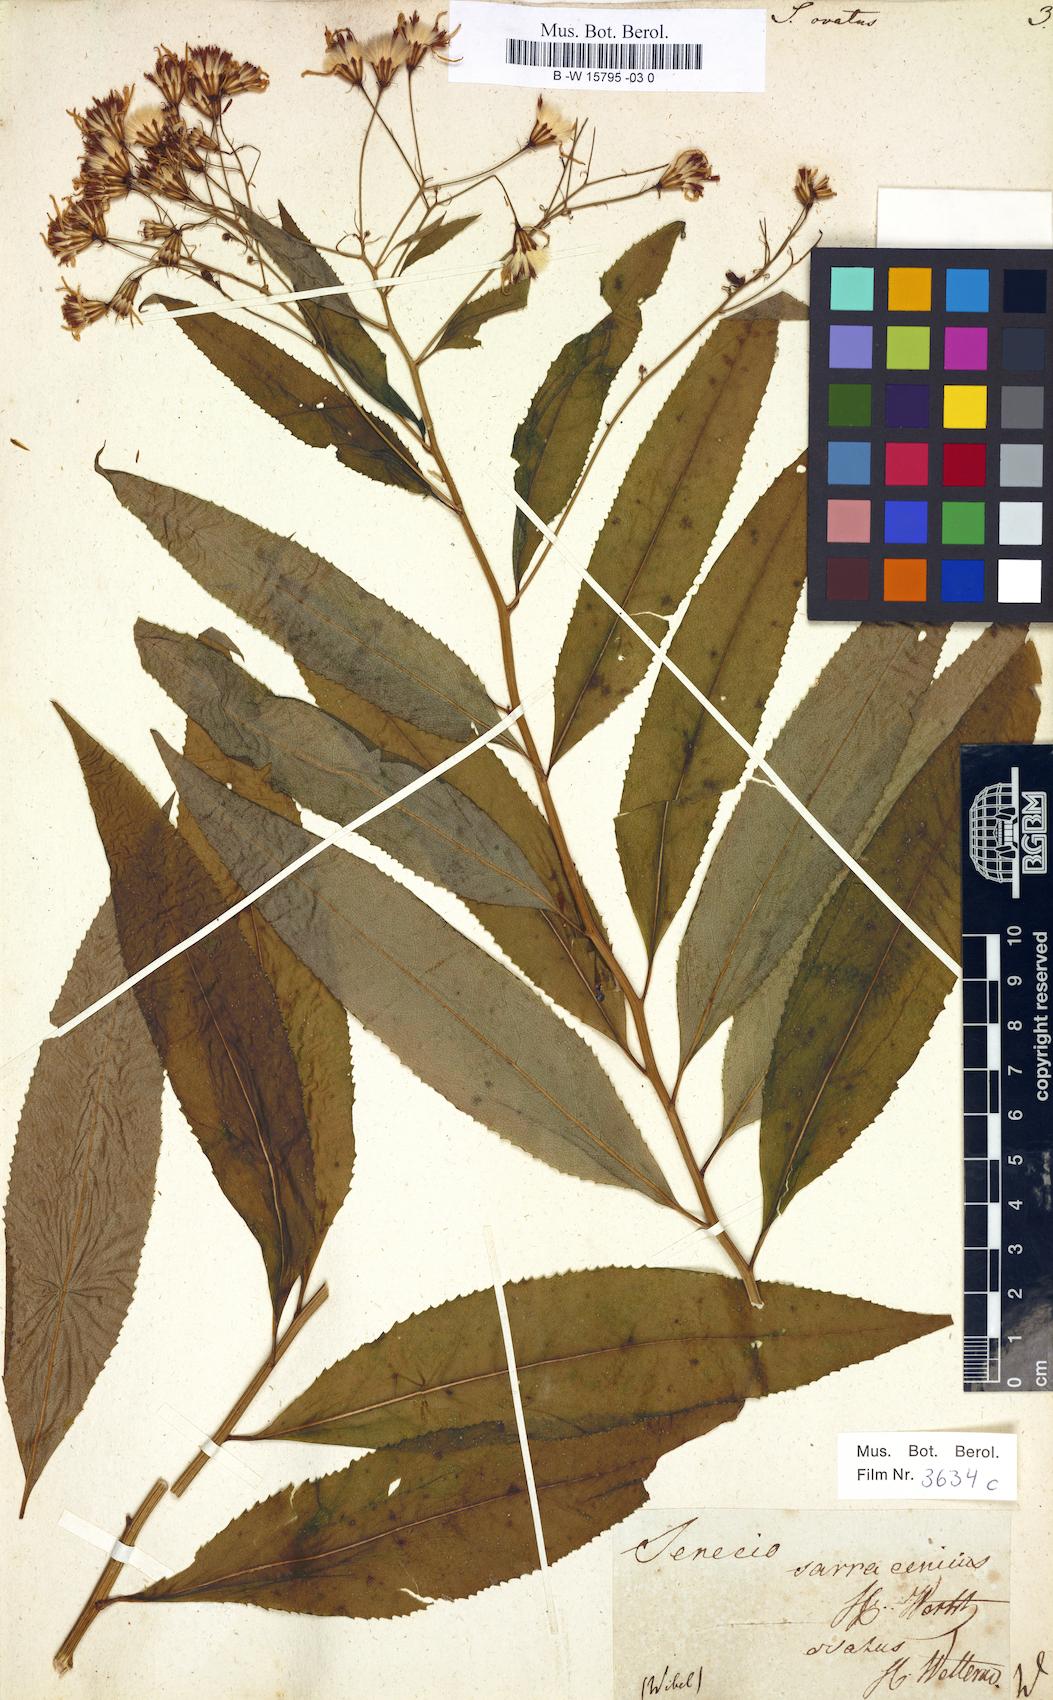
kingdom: Plantae
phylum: Tracheophyta
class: Magnoliopsida
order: Asterales
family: Asteraceae
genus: Senecio
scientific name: Senecio ovatus
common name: Wood ragwort
